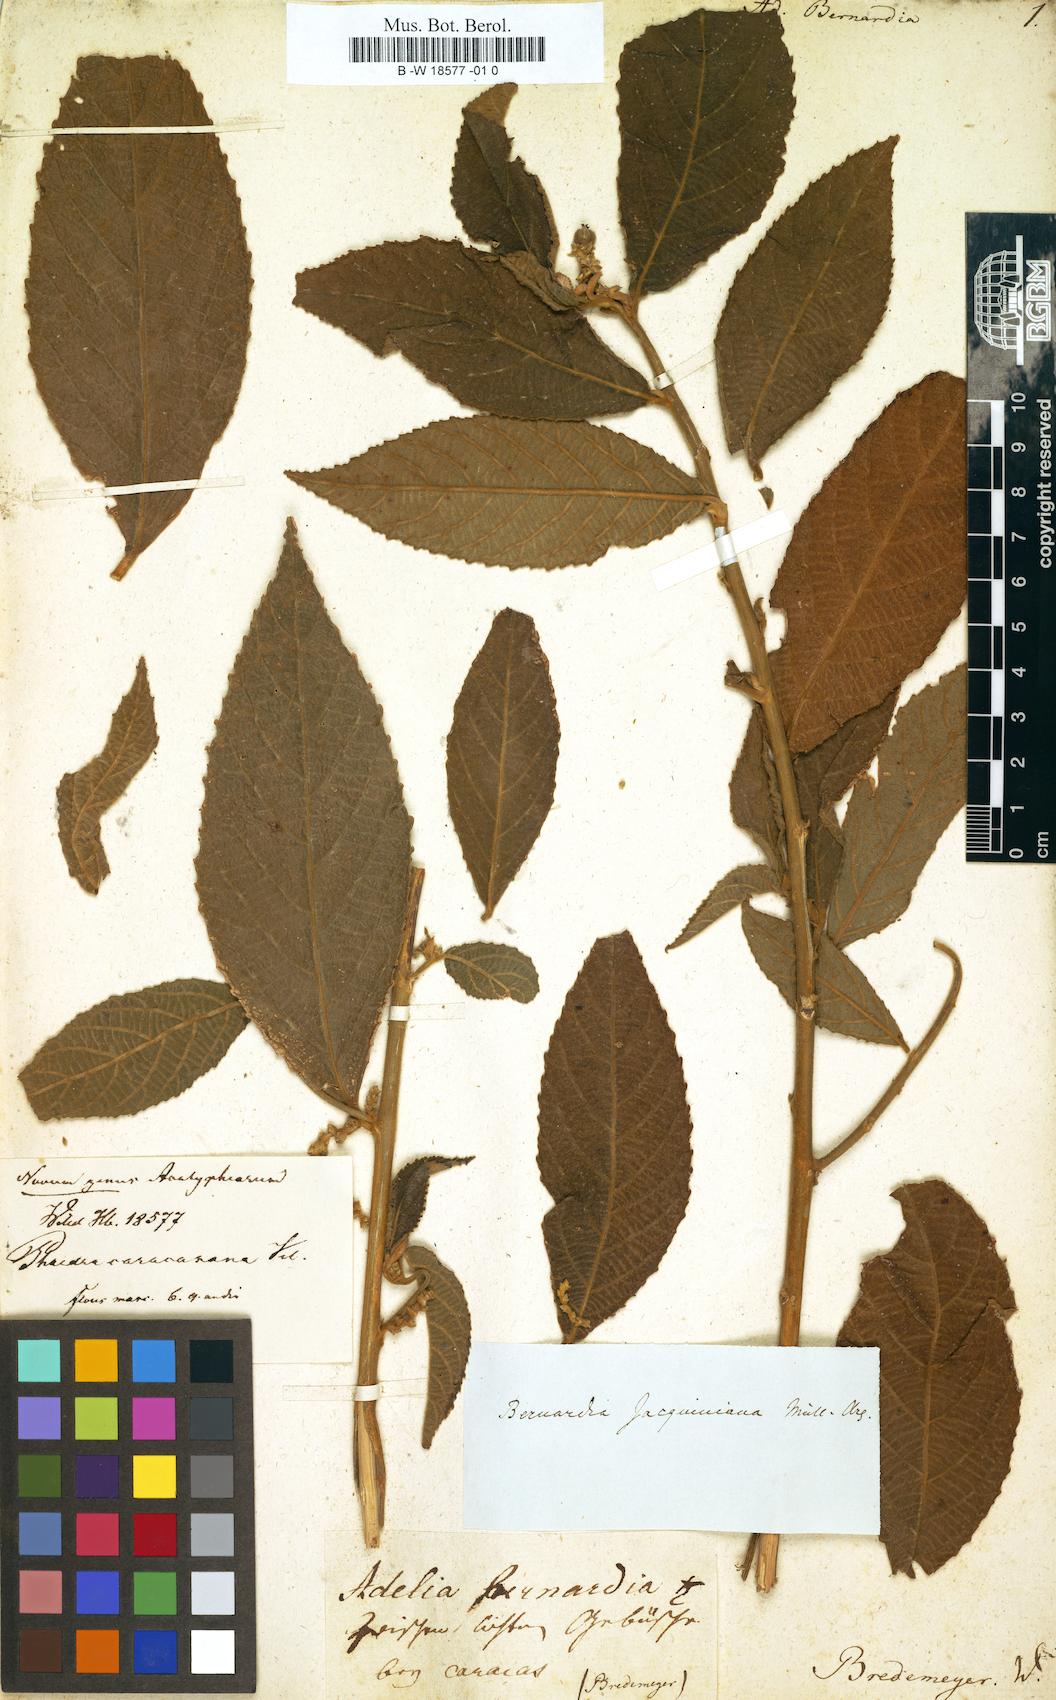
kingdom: Plantae
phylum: Tracheophyta
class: Magnoliopsida
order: Malpighiales
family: Euphorbiaceae
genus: Mallotus
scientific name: Mallotus mollissimus
